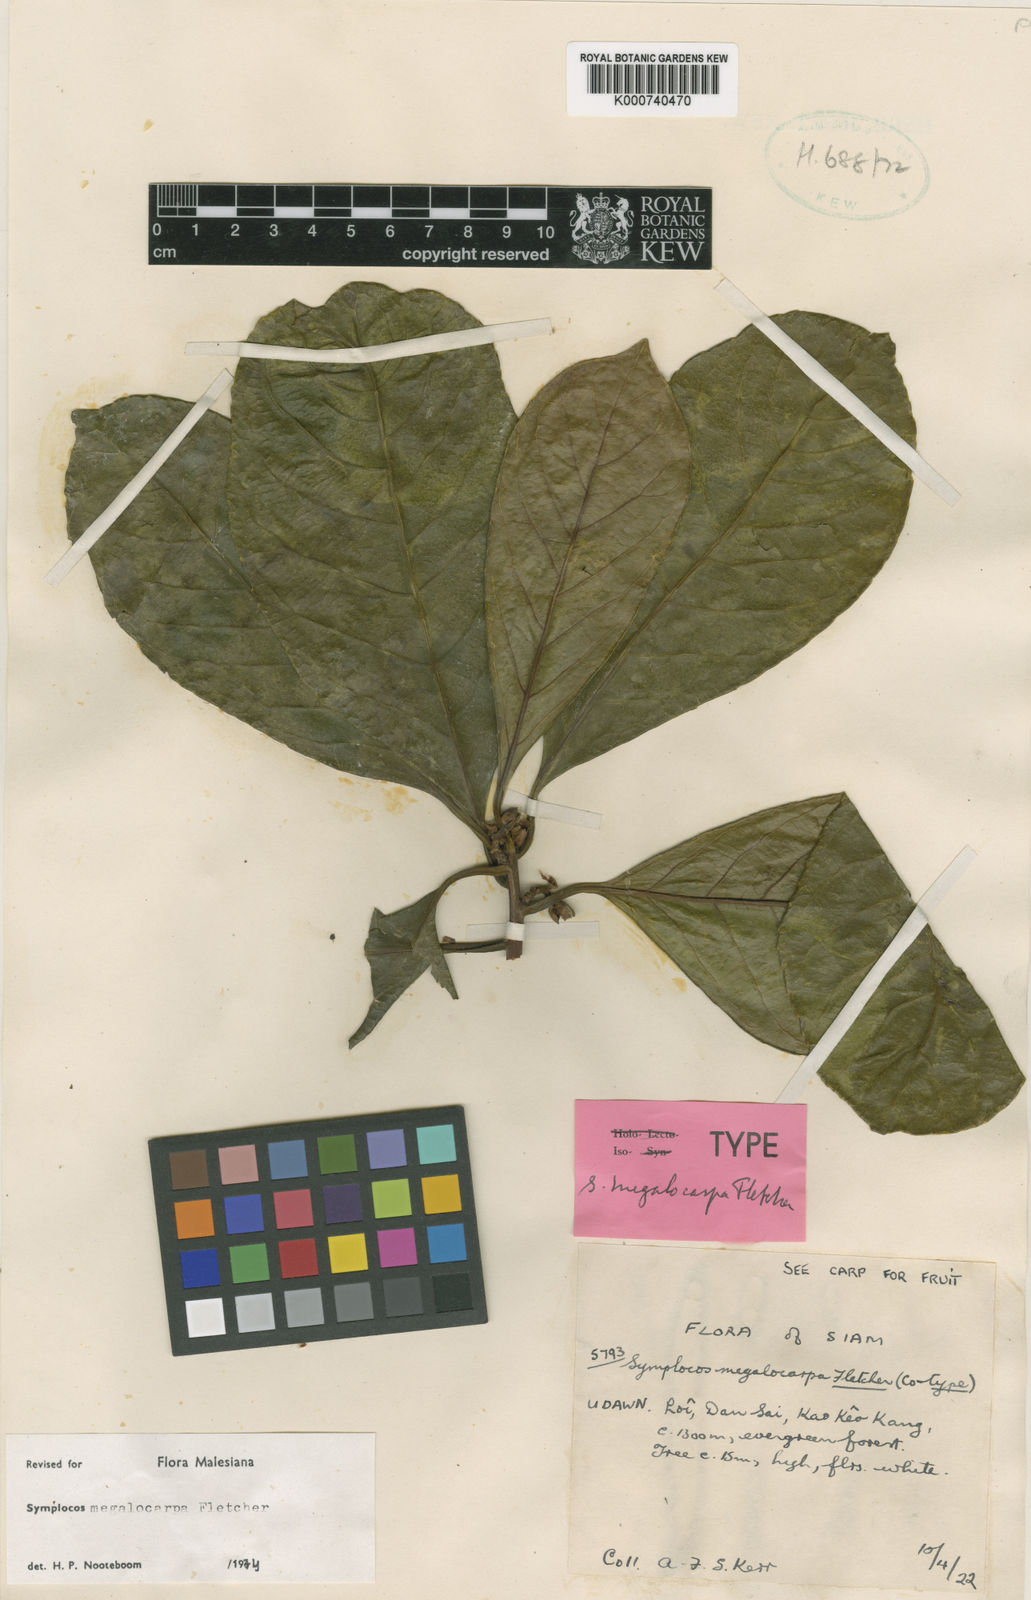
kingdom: Plantae
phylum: Tracheophyta
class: Magnoliopsida
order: Ericales
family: Symplocaceae
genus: Symplocos
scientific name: Symplocos sulcata
